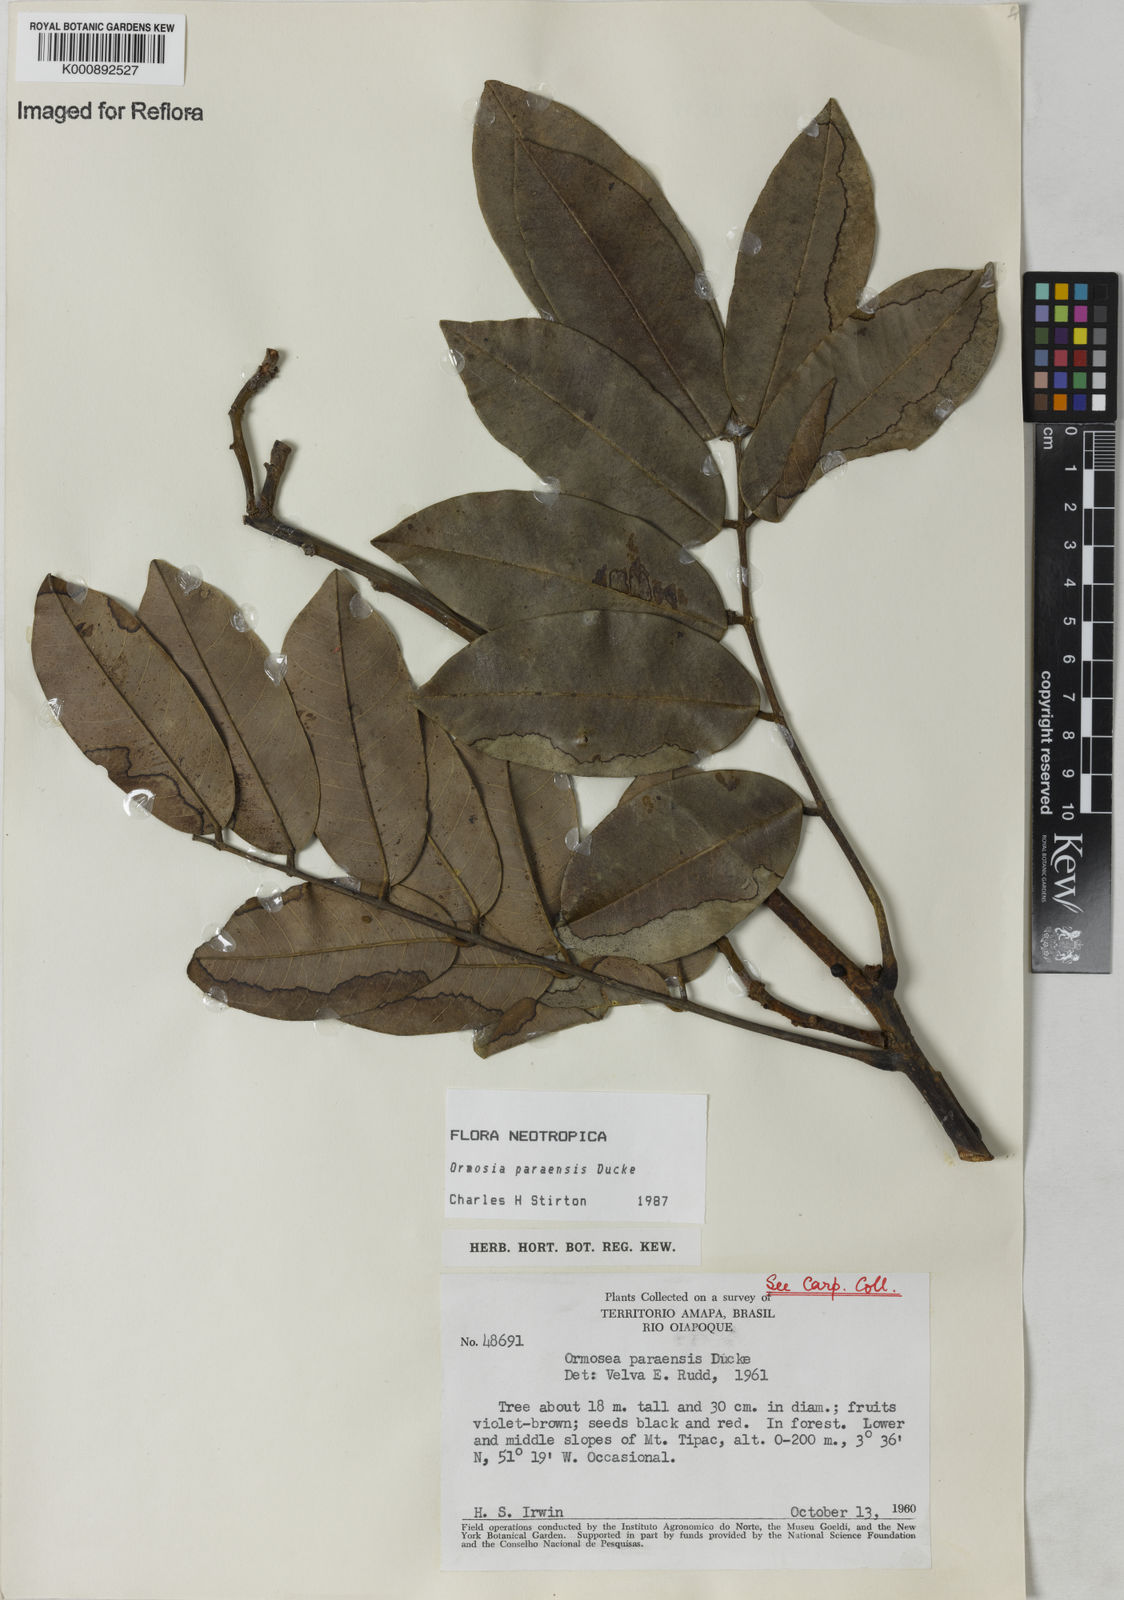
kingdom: Plantae
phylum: Tracheophyta
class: Magnoliopsida
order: Fabales
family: Fabaceae
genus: Ormosia
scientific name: Ormosia paraensis
